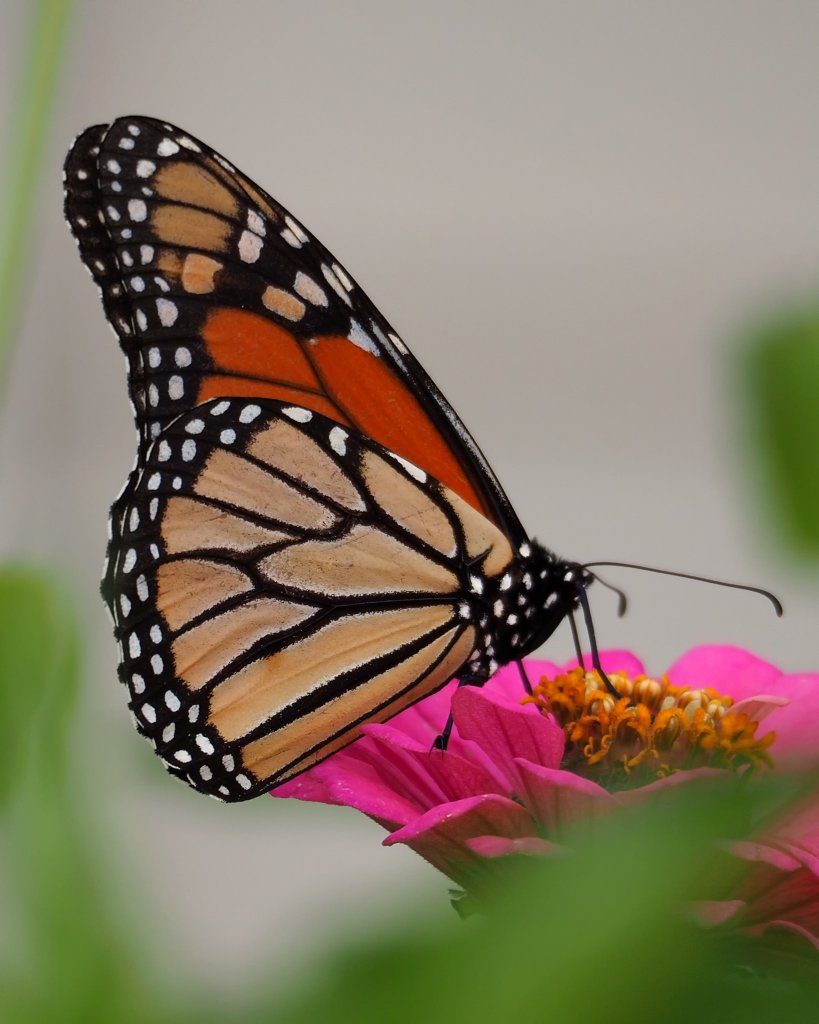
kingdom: Animalia
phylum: Arthropoda
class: Insecta
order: Lepidoptera
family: Nymphalidae
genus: Danaus
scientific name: Danaus plexippus
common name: Monarch
